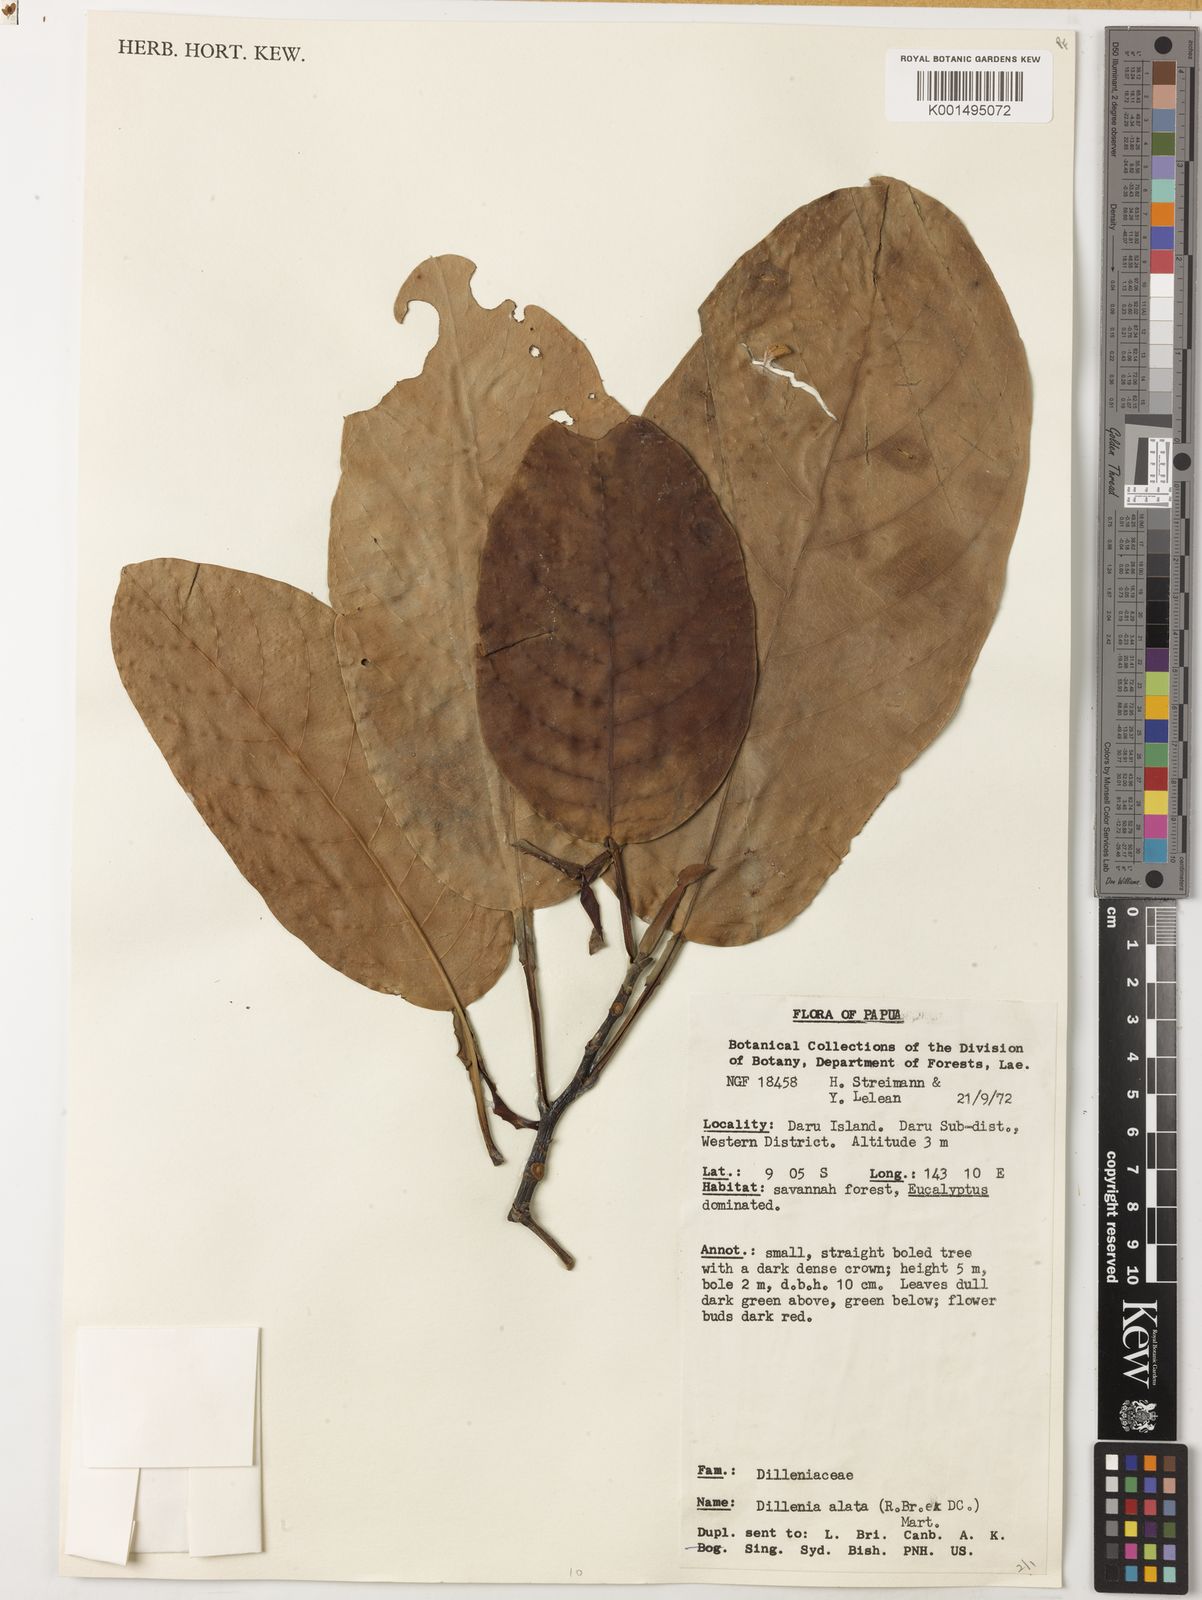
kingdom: Plantae
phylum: Tracheophyta
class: Magnoliopsida
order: Dilleniales
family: Dilleniaceae
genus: Dillenia
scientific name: Dillenia alata
